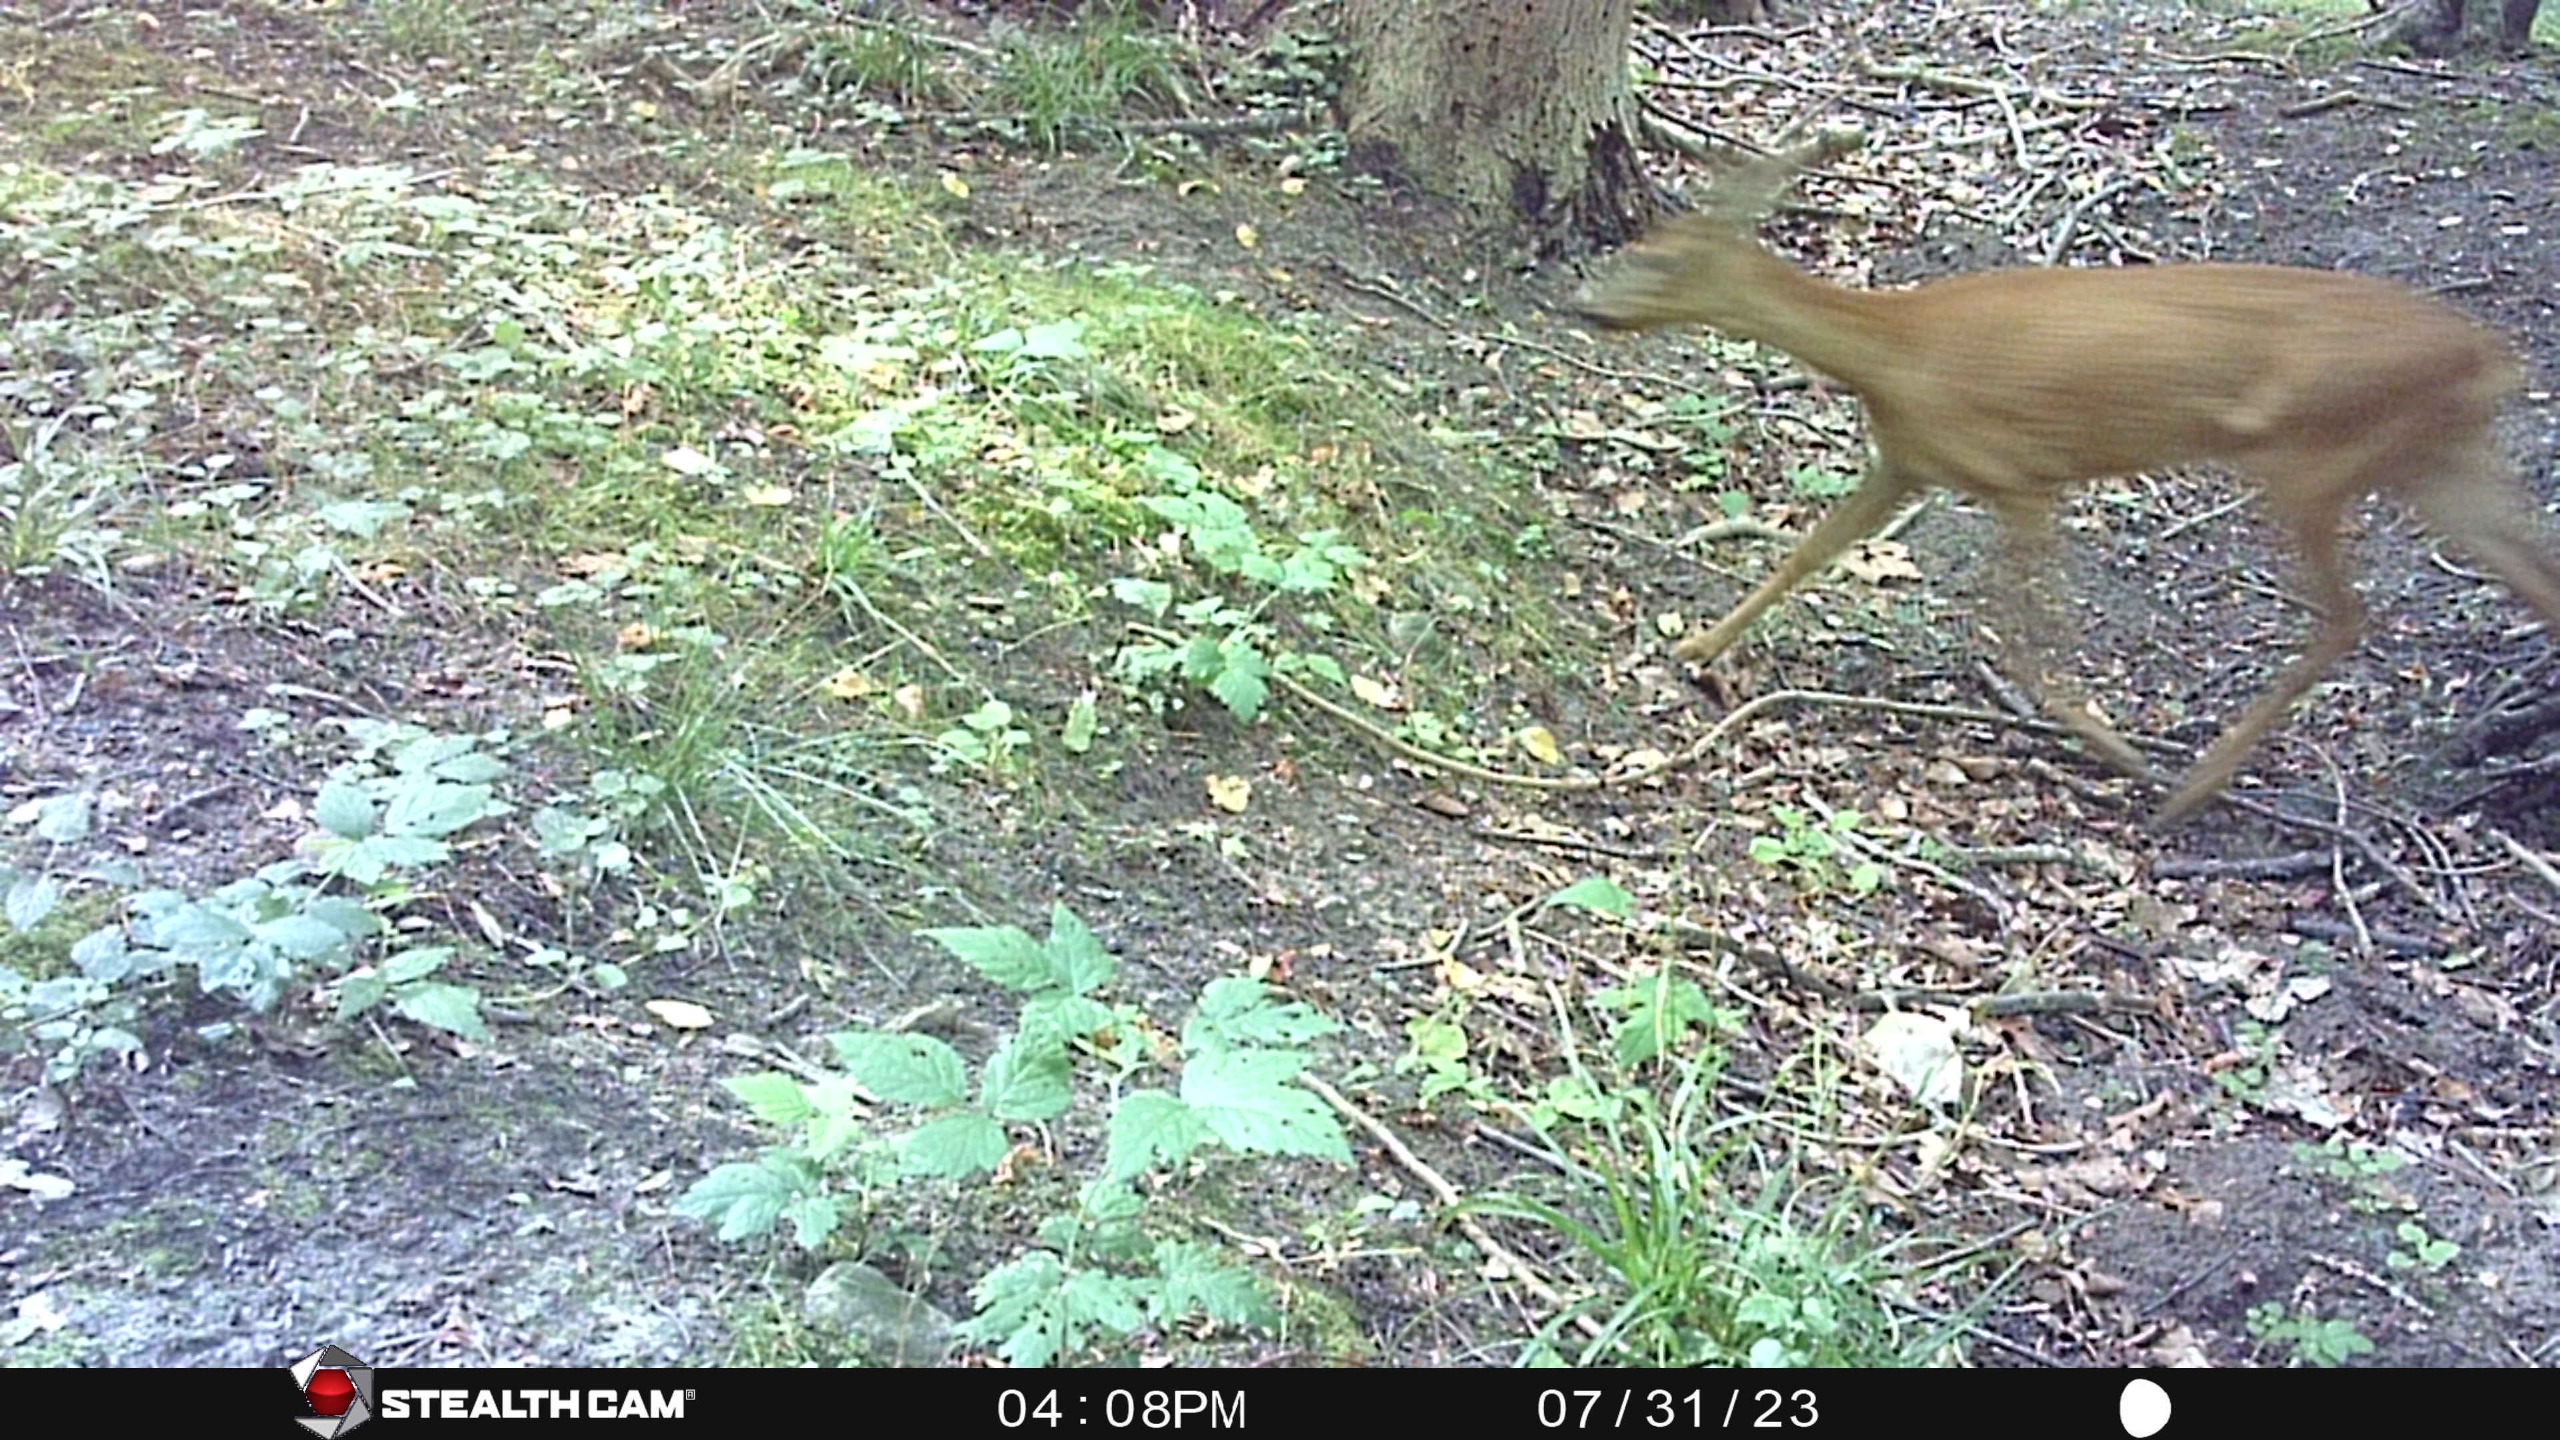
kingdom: Animalia
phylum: Chordata
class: Mammalia
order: Artiodactyla
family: Cervidae
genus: Capreolus
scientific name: Capreolus capreolus
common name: Rådyr
